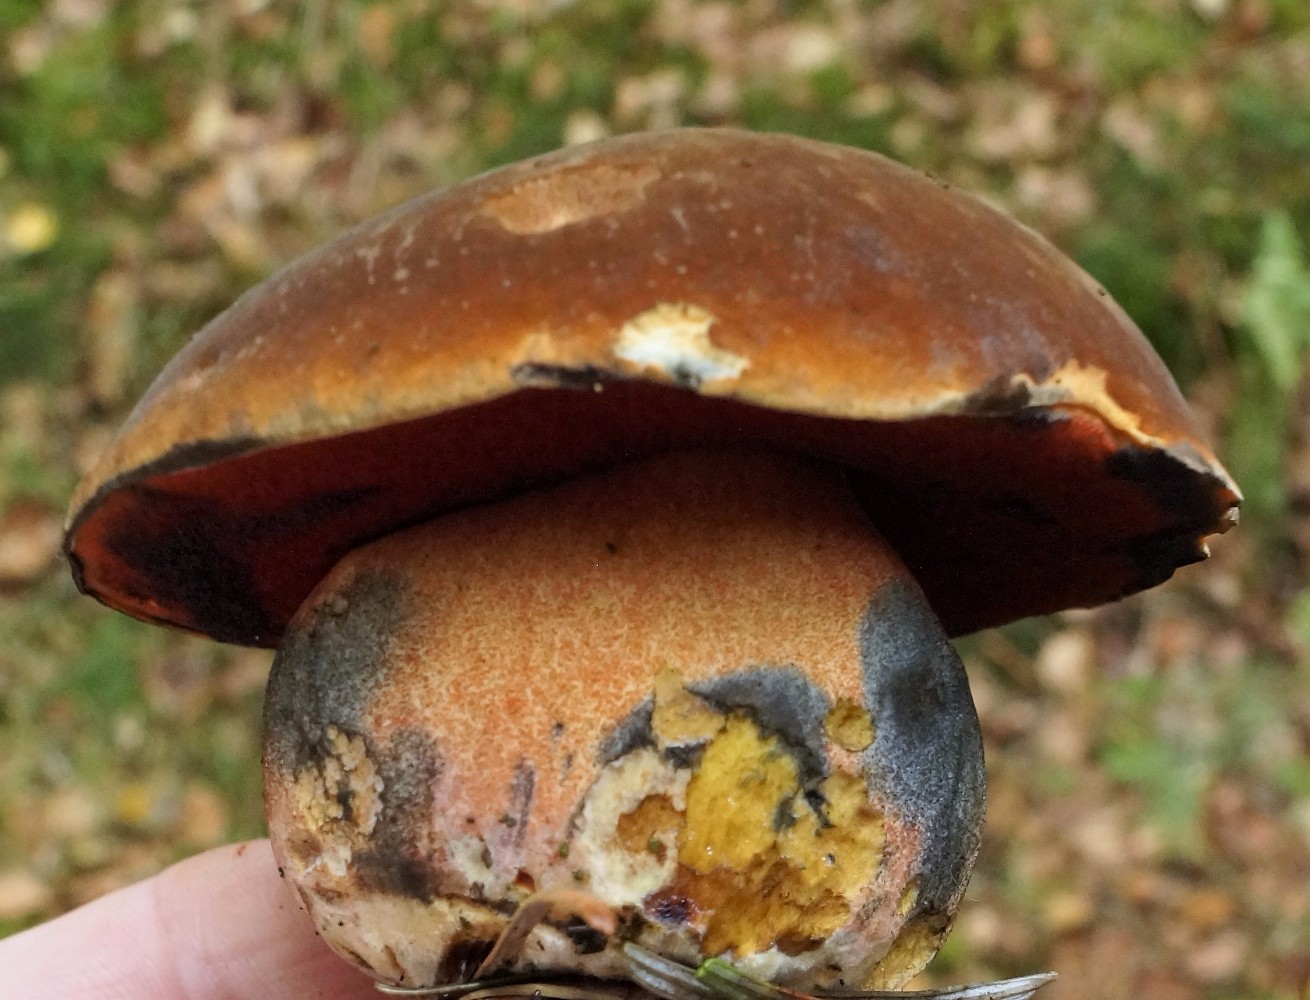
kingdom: Fungi
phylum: Basidiomycota
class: Agaricomycetes
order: Boletales
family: Boletaceae
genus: Neoboletus
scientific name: Neoboletus erythropus
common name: punktstokket indigorørhat
